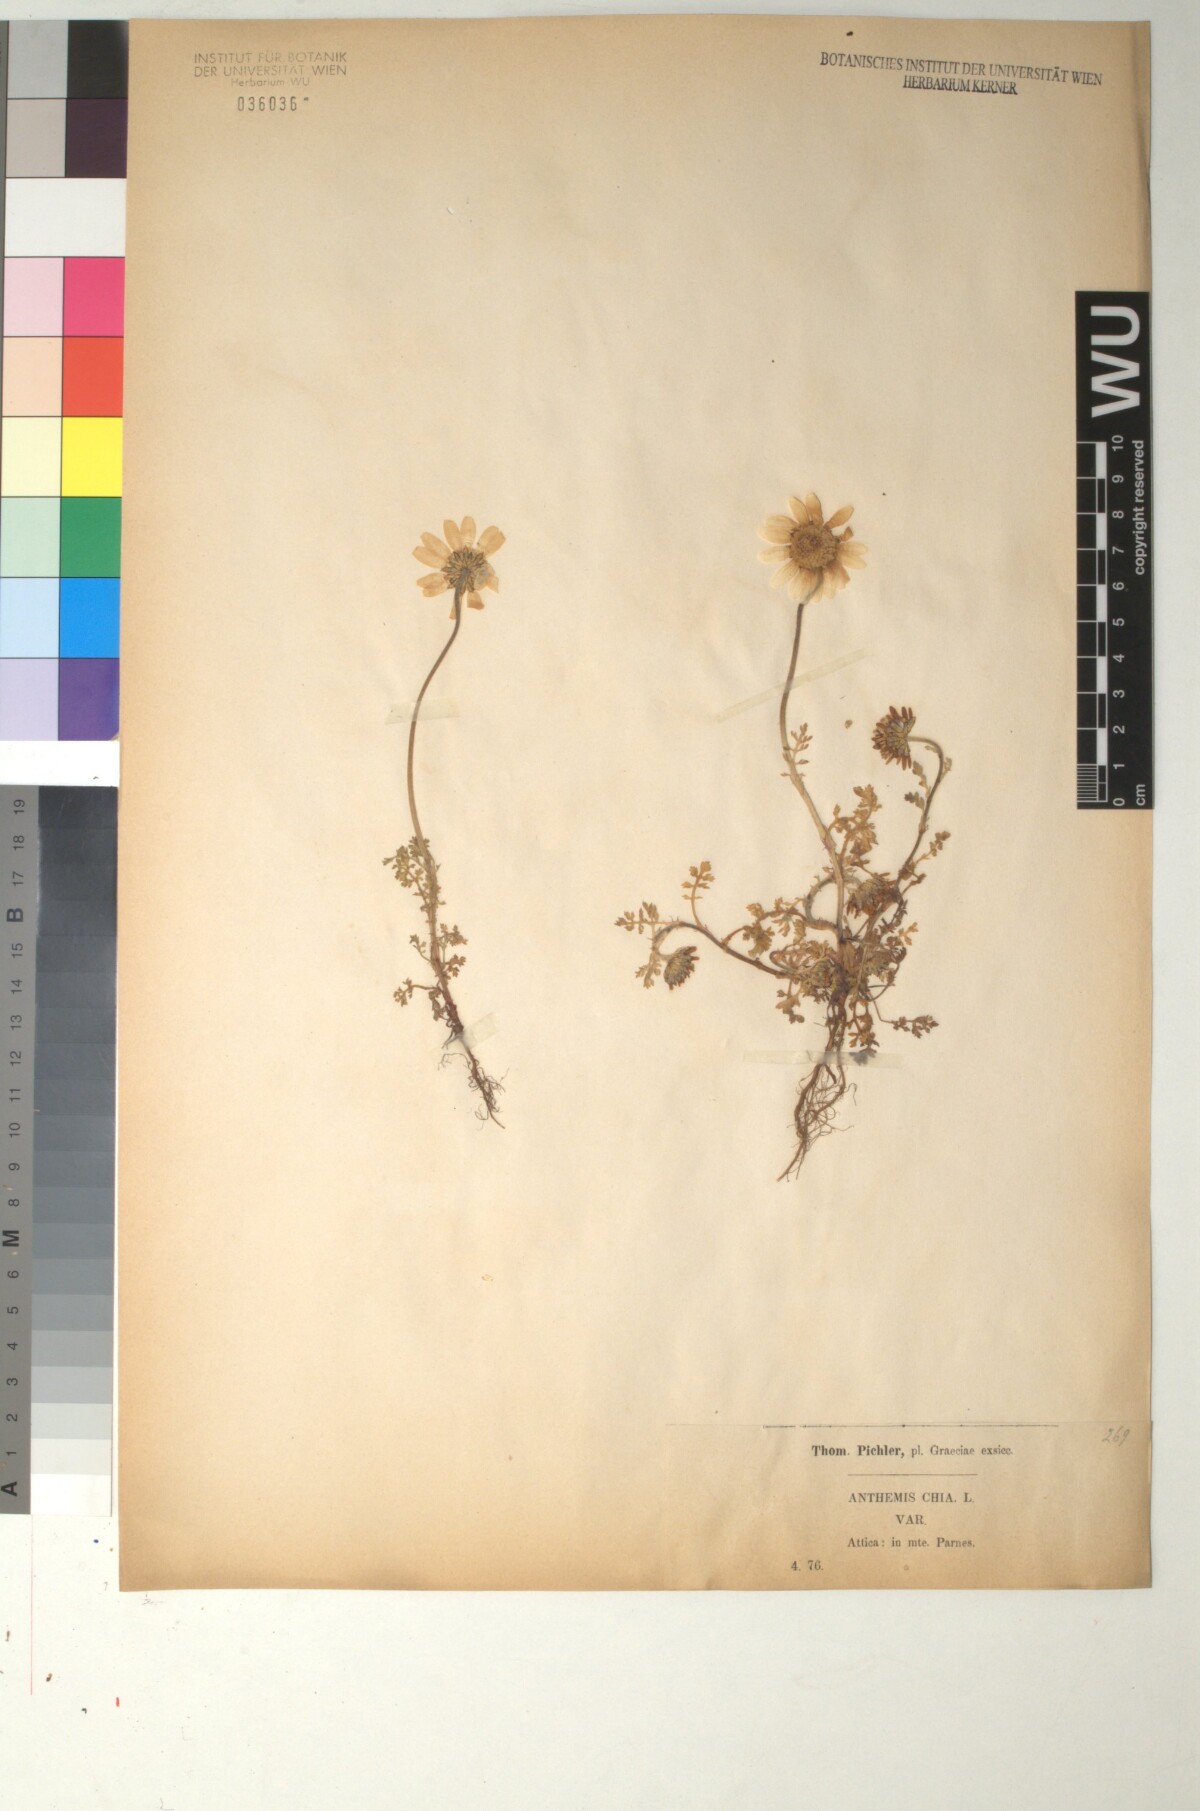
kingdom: Plantae
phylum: Tracheophyta
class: Magnoliopsida
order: Asterales
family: Asteraceae
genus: Anthemis
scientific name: Anthemis chia
